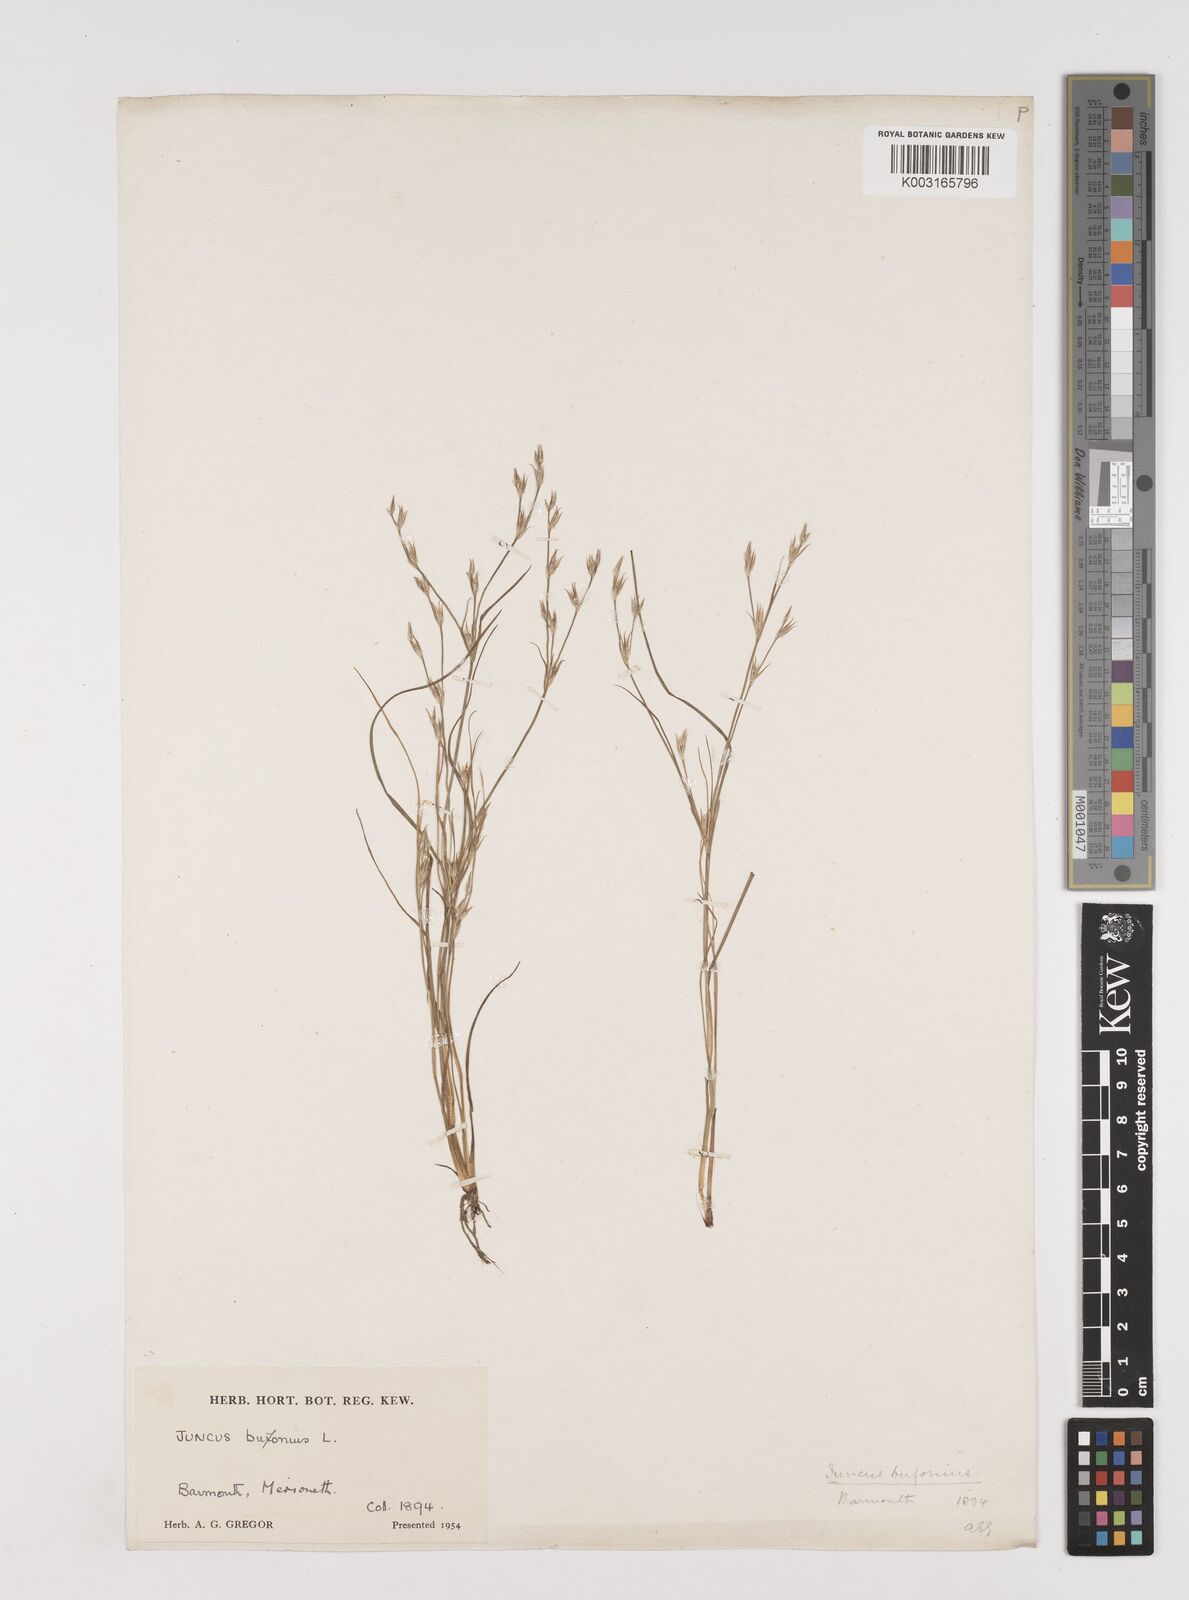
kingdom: Plantae
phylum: Tracheophyta
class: Liliopsida
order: Poales
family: Juncaceae
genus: Juncus
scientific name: Juncus bufonius
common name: Toad rush
